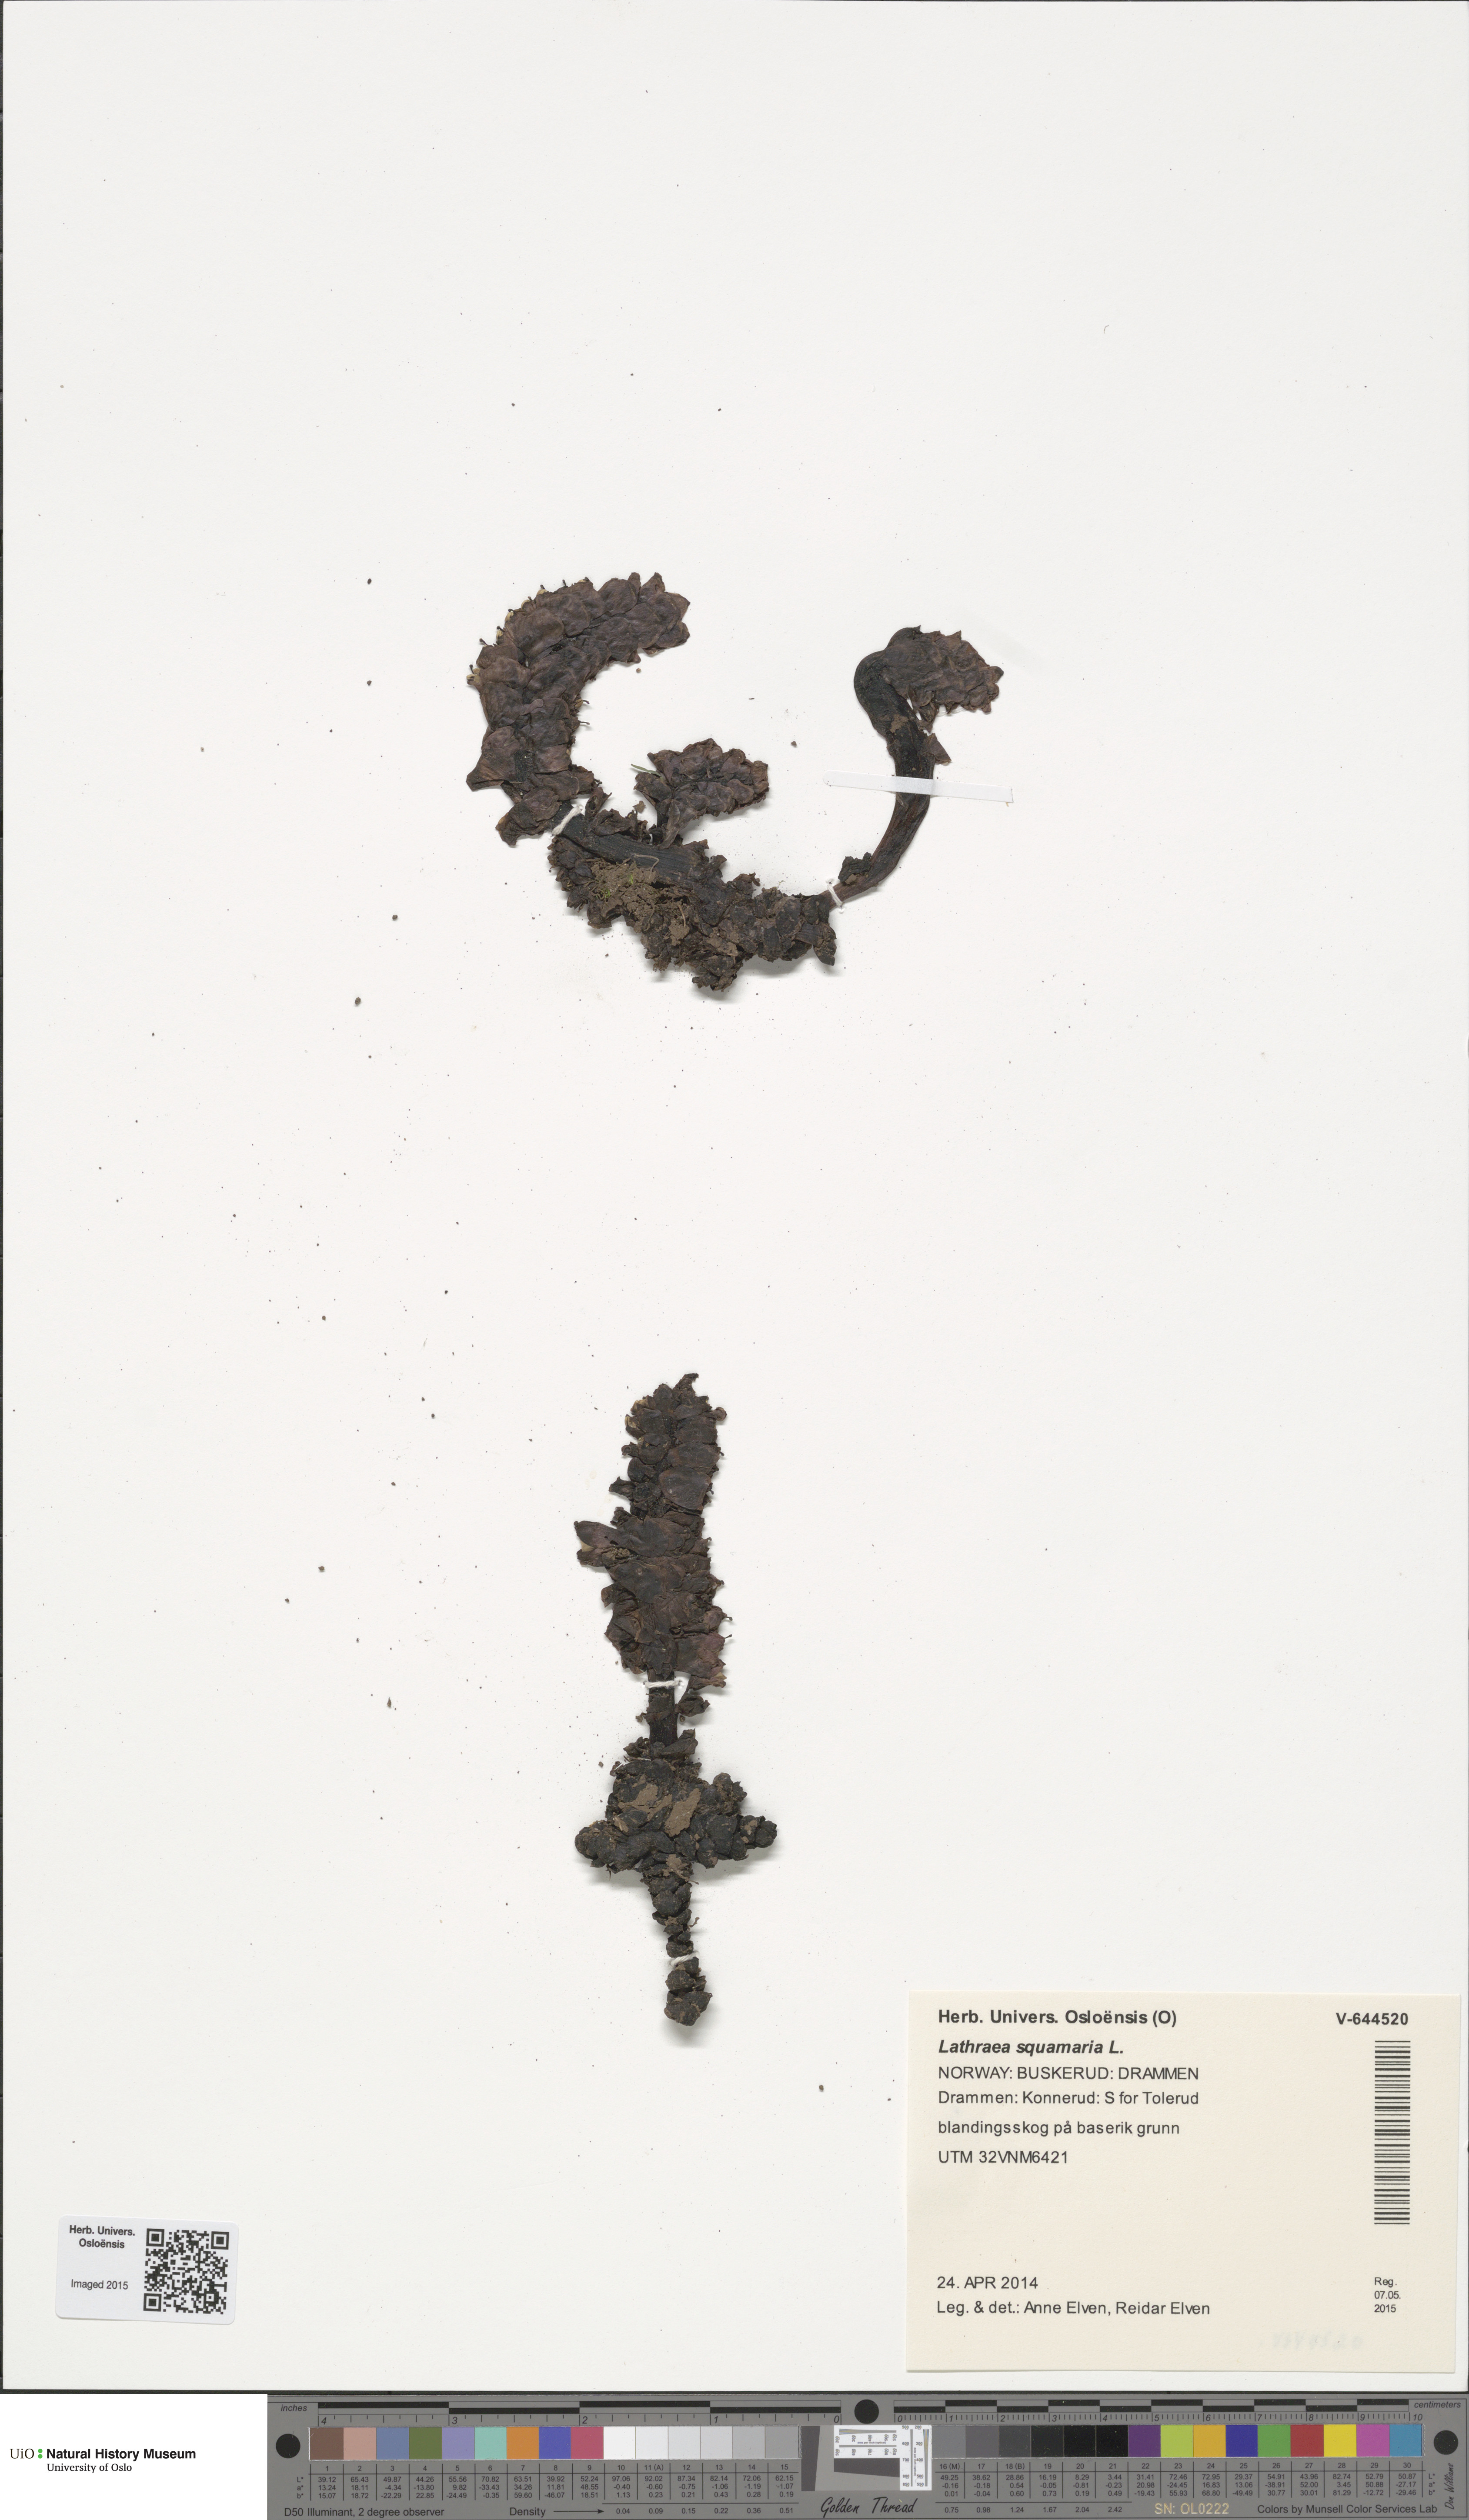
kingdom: Plantae
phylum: Tracheophyta
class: Magnoliopsida
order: Lamiales
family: Orobanchaceae
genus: Lathraea
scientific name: Lathraea squamaria
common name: Toothwort
